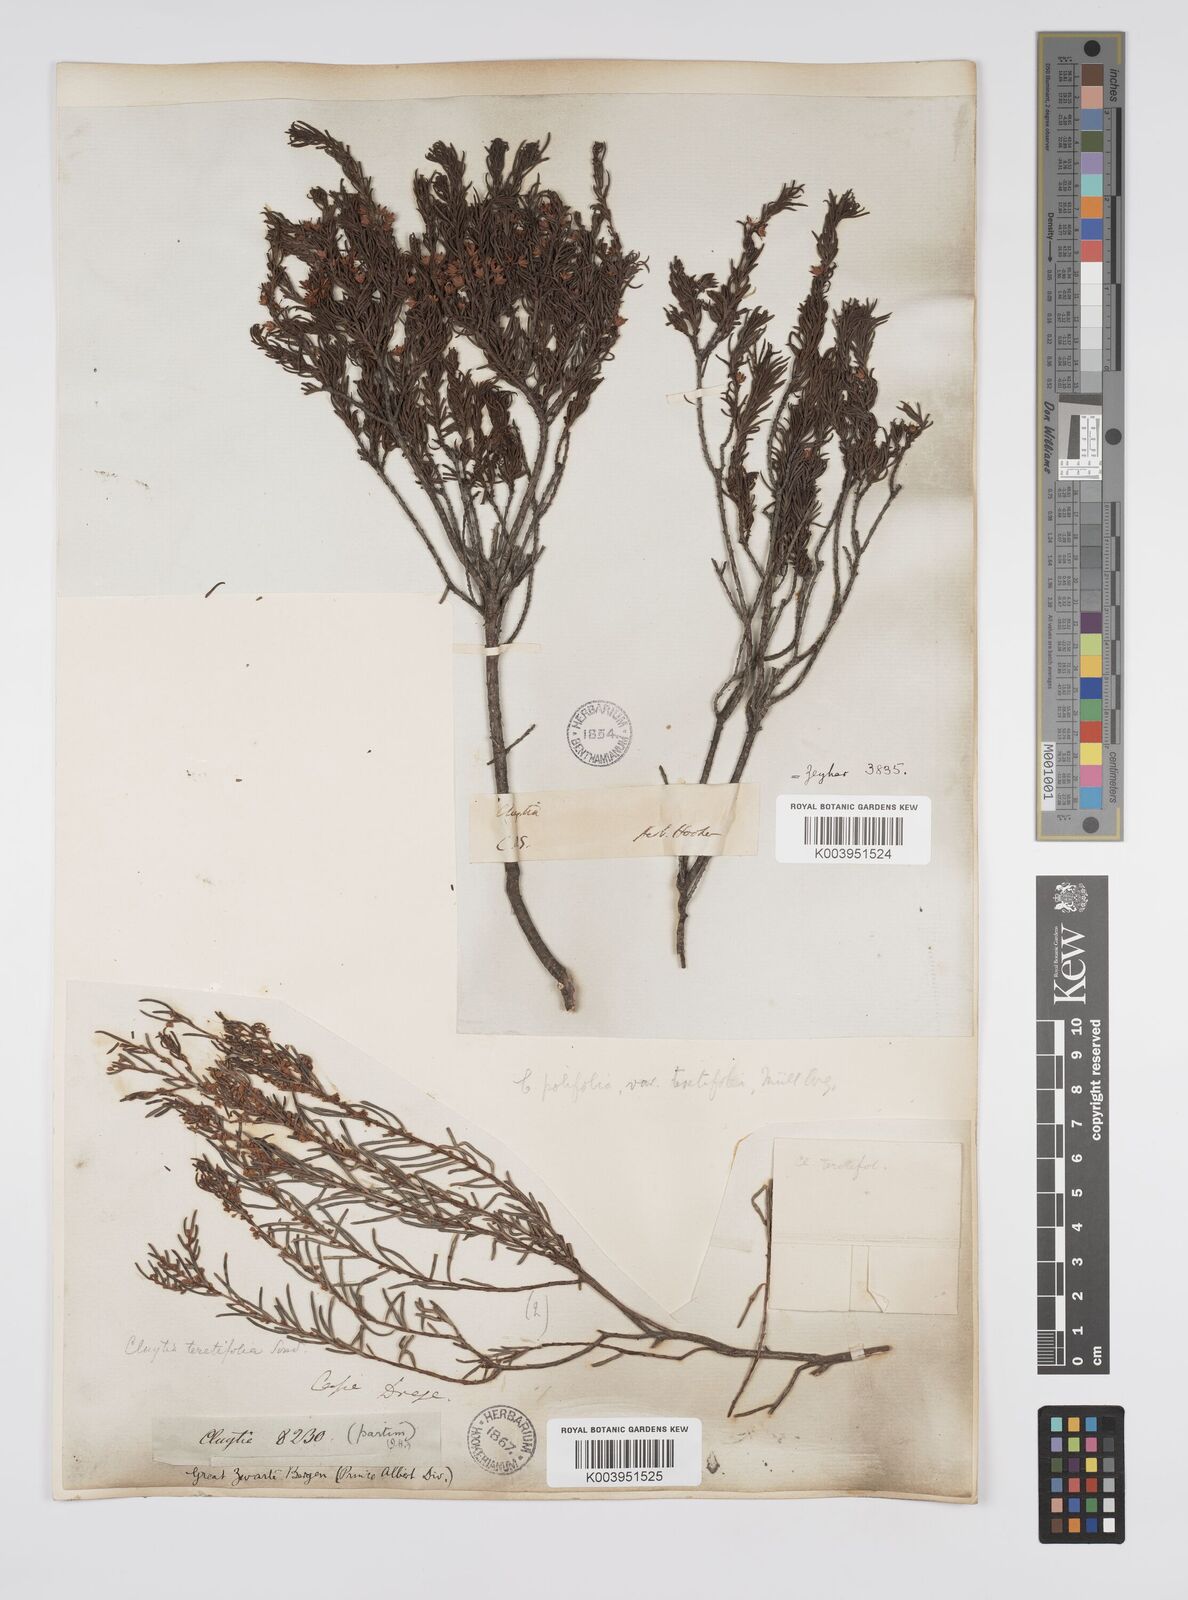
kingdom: Plantae
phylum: Tracheophyta
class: Magnoliopsida
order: Malpighiales
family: Peraceae
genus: Clutia
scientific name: Clutia
